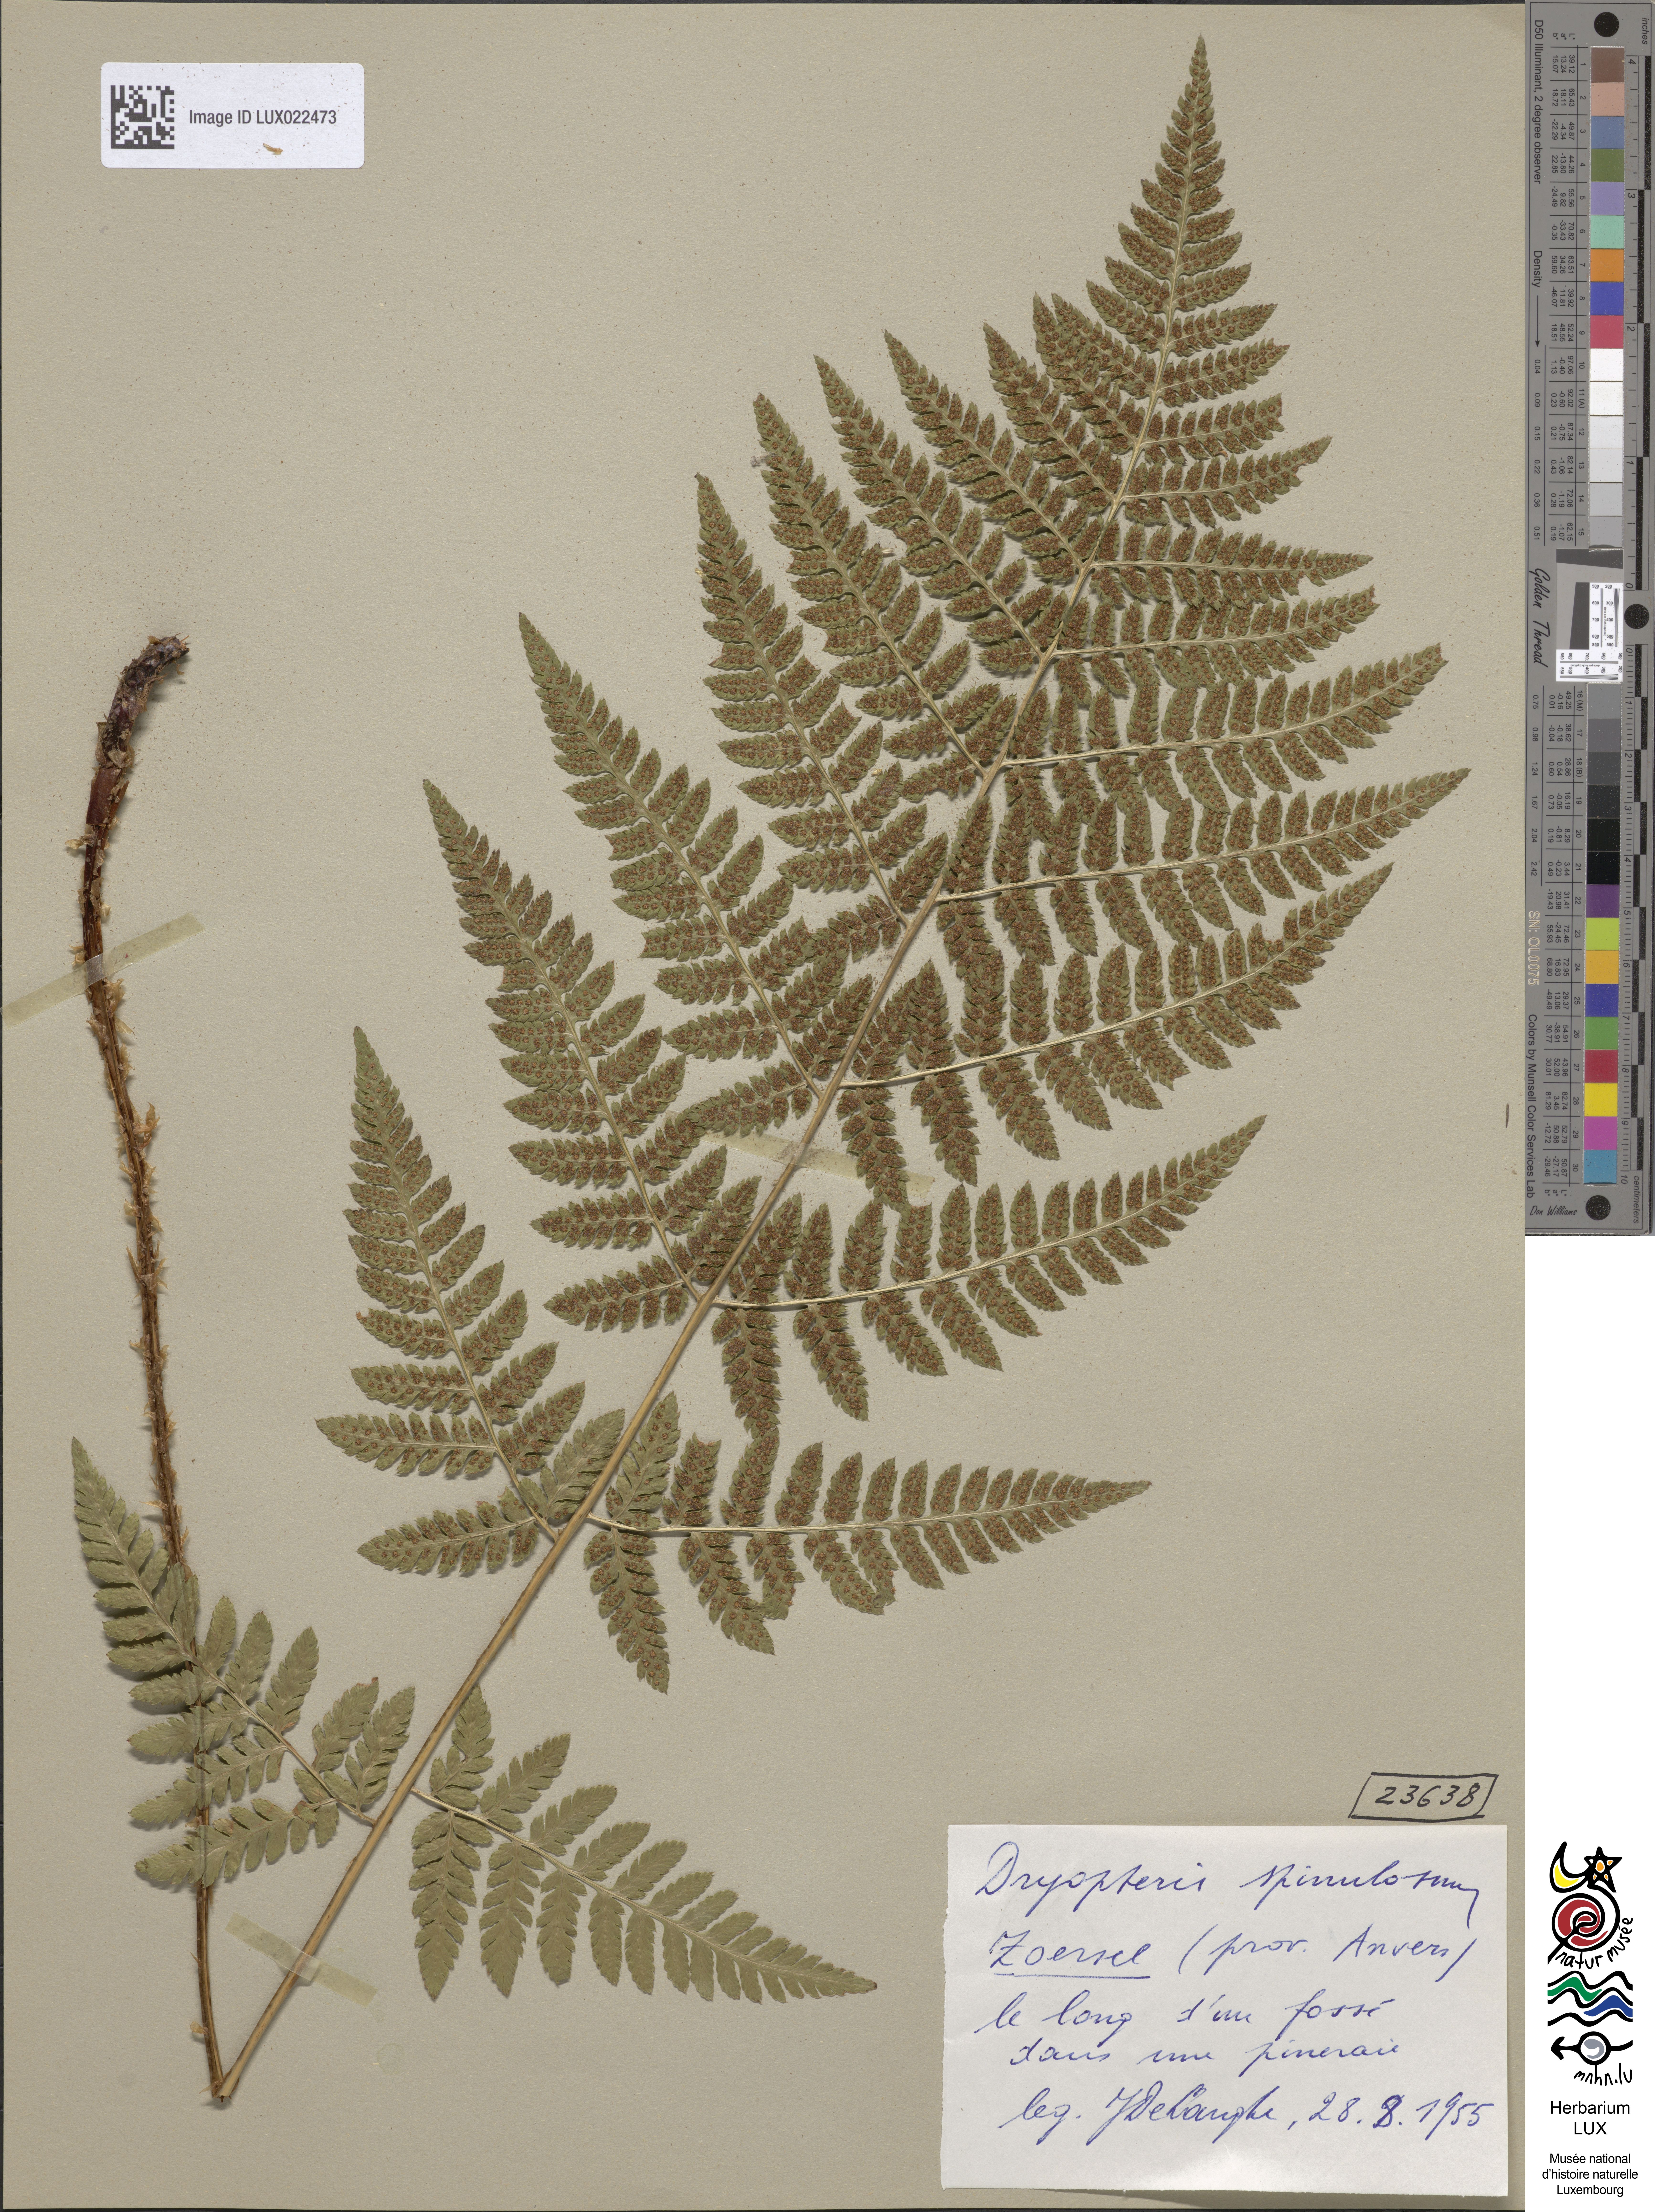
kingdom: Plantae
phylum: Tracheophyta
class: Polypodiopsida
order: Polypodiales
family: Dryopteridaceae
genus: Dryopteris
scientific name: Dryopteris carthusiana
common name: Narrow buckler-fern
